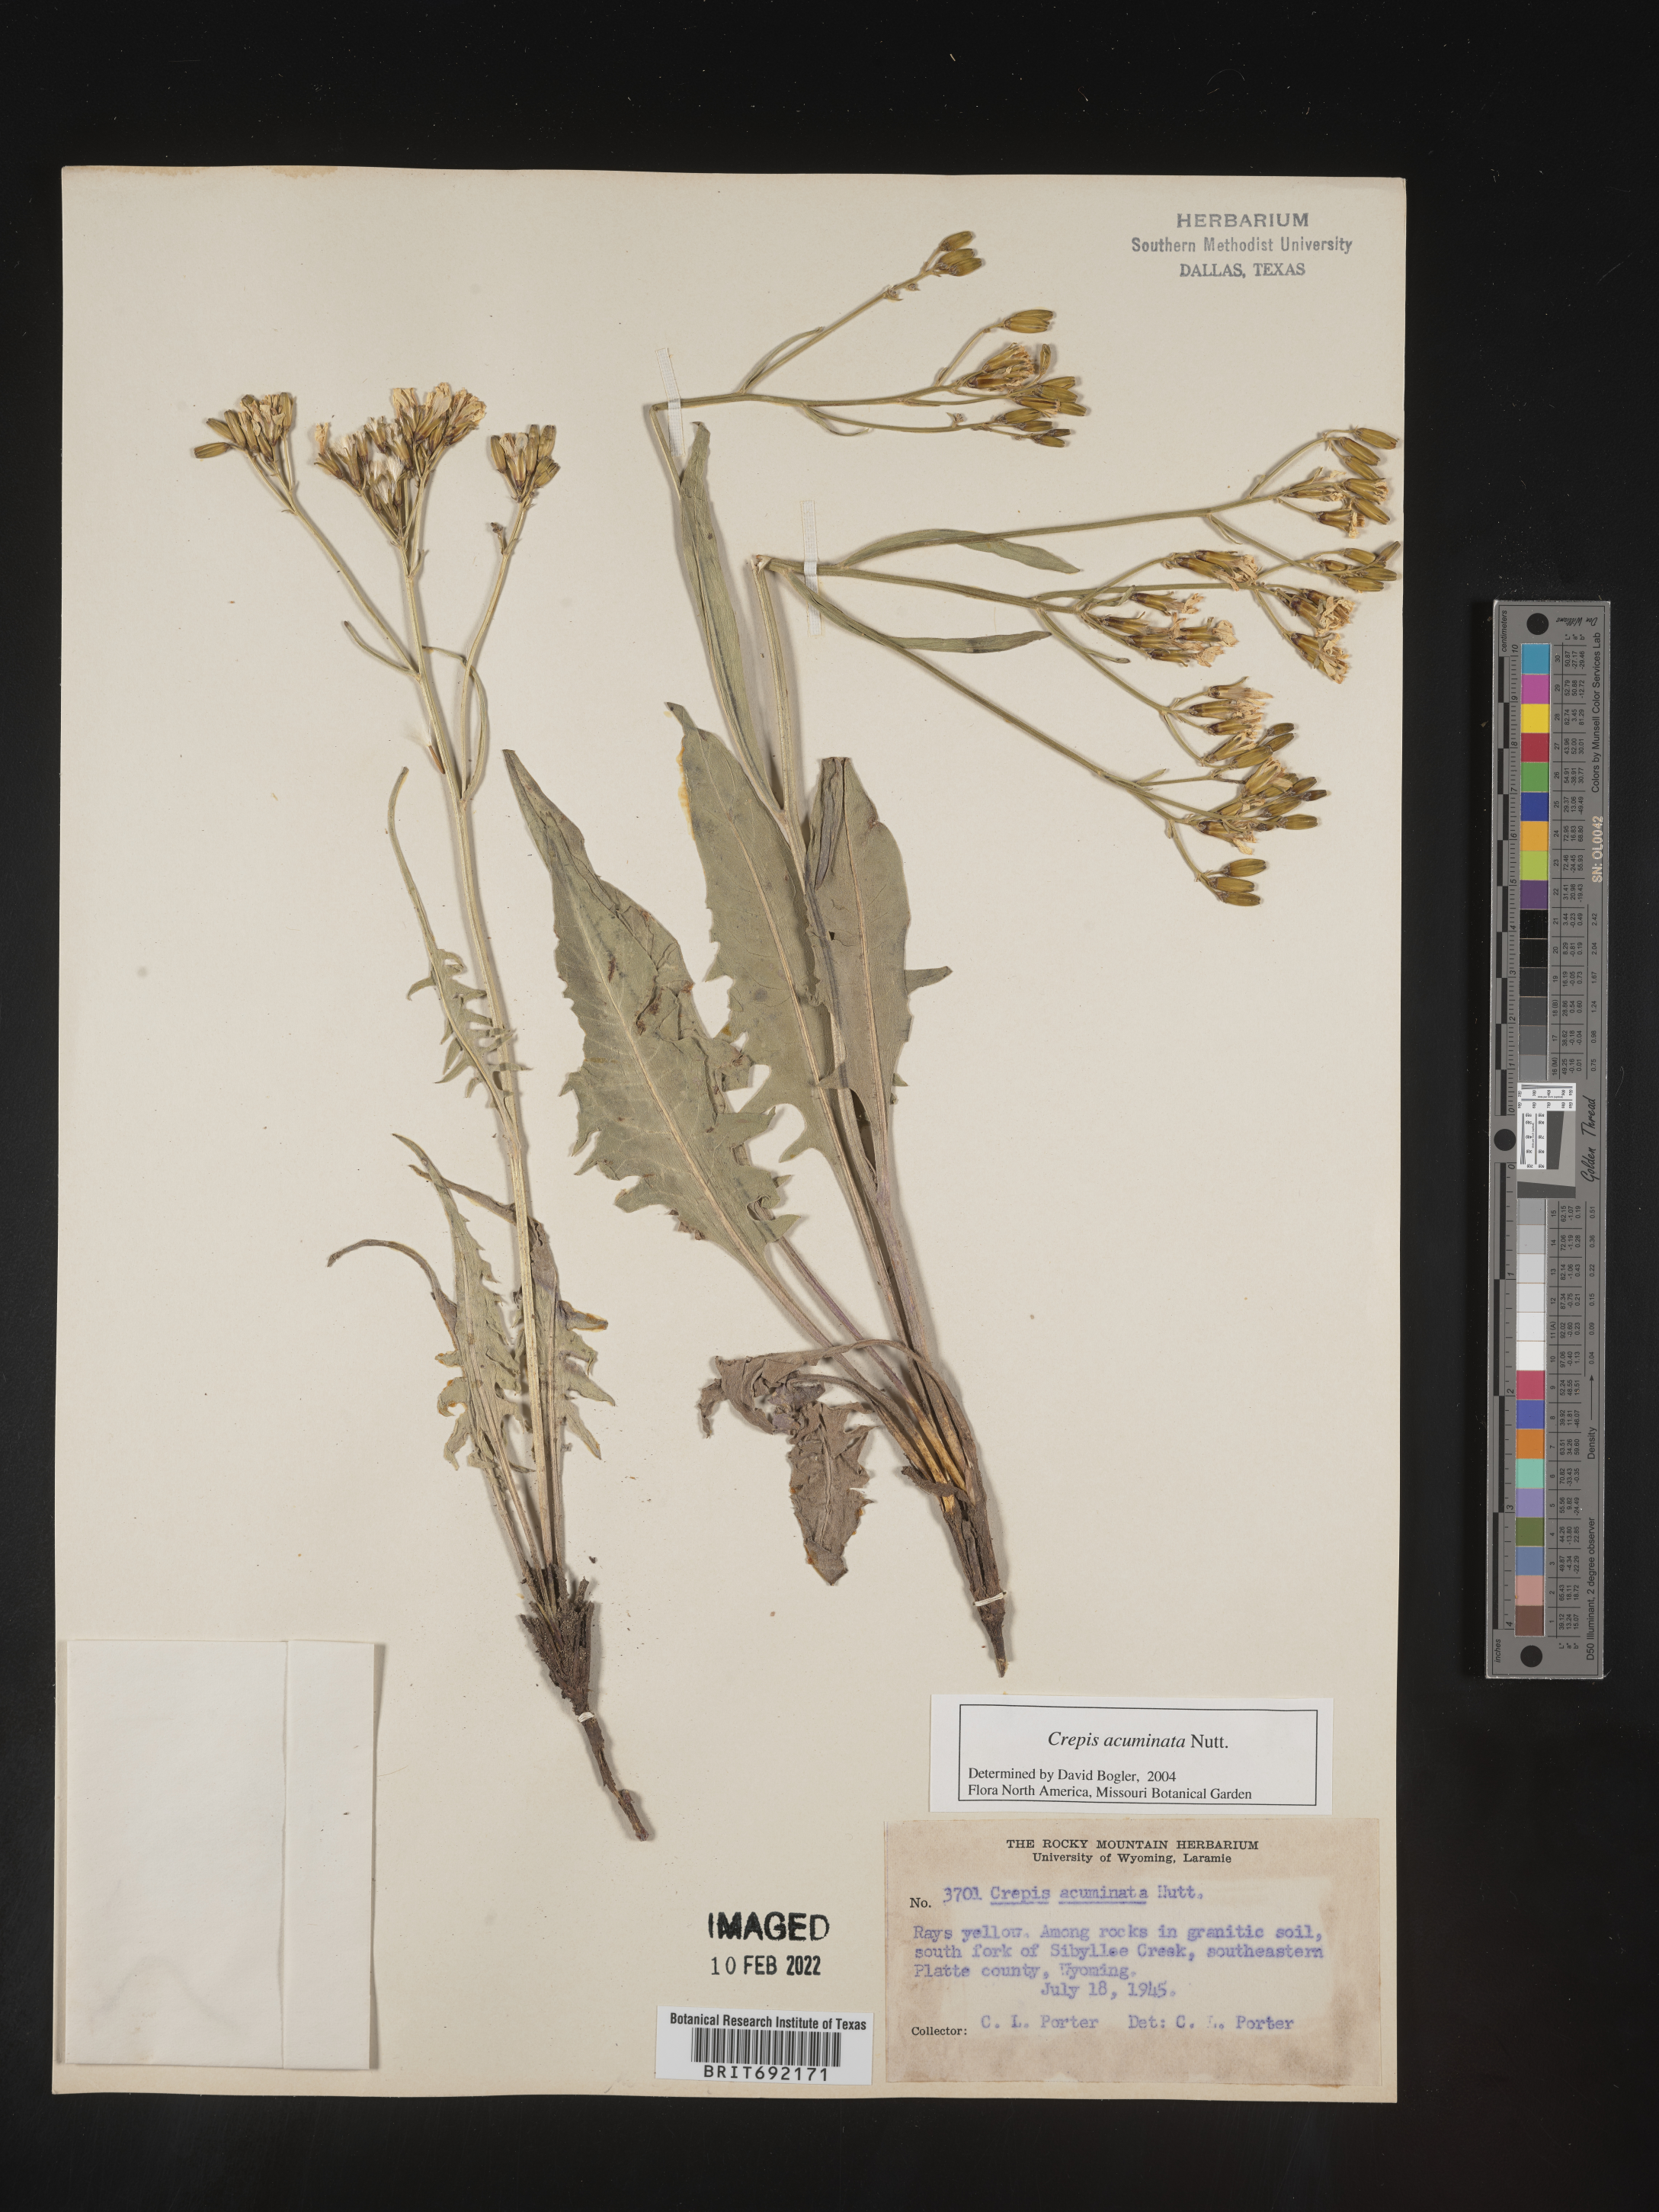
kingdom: Plantae
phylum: Tracheophyta
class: Magnoliopsida
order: Asterales
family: Asteraceae
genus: Crepis
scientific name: Crepis acuminata
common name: Longleaf hawk's-beard
